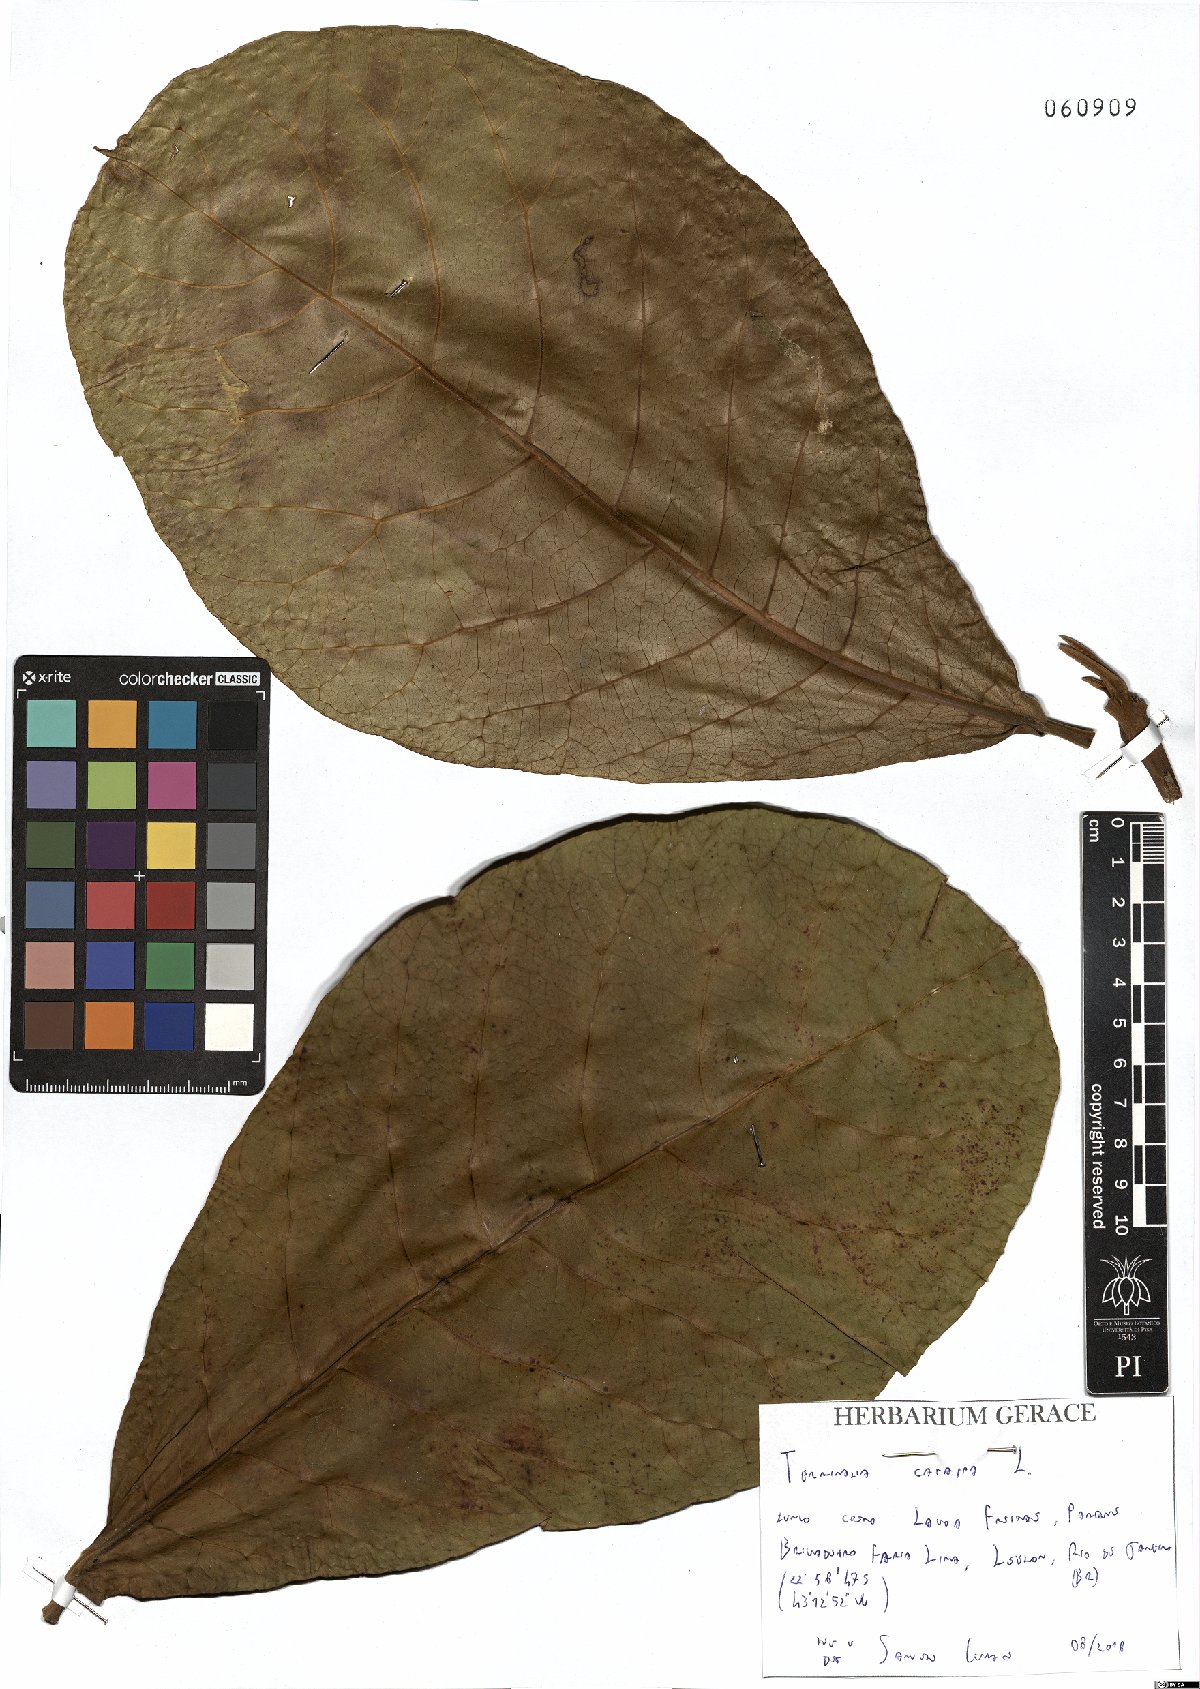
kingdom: Plantae
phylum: Tracheophyta
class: Magnoliopsida
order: Myrtales
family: Combretaceae
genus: Terminalia
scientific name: Terminalia catappa
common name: Tropical almond
